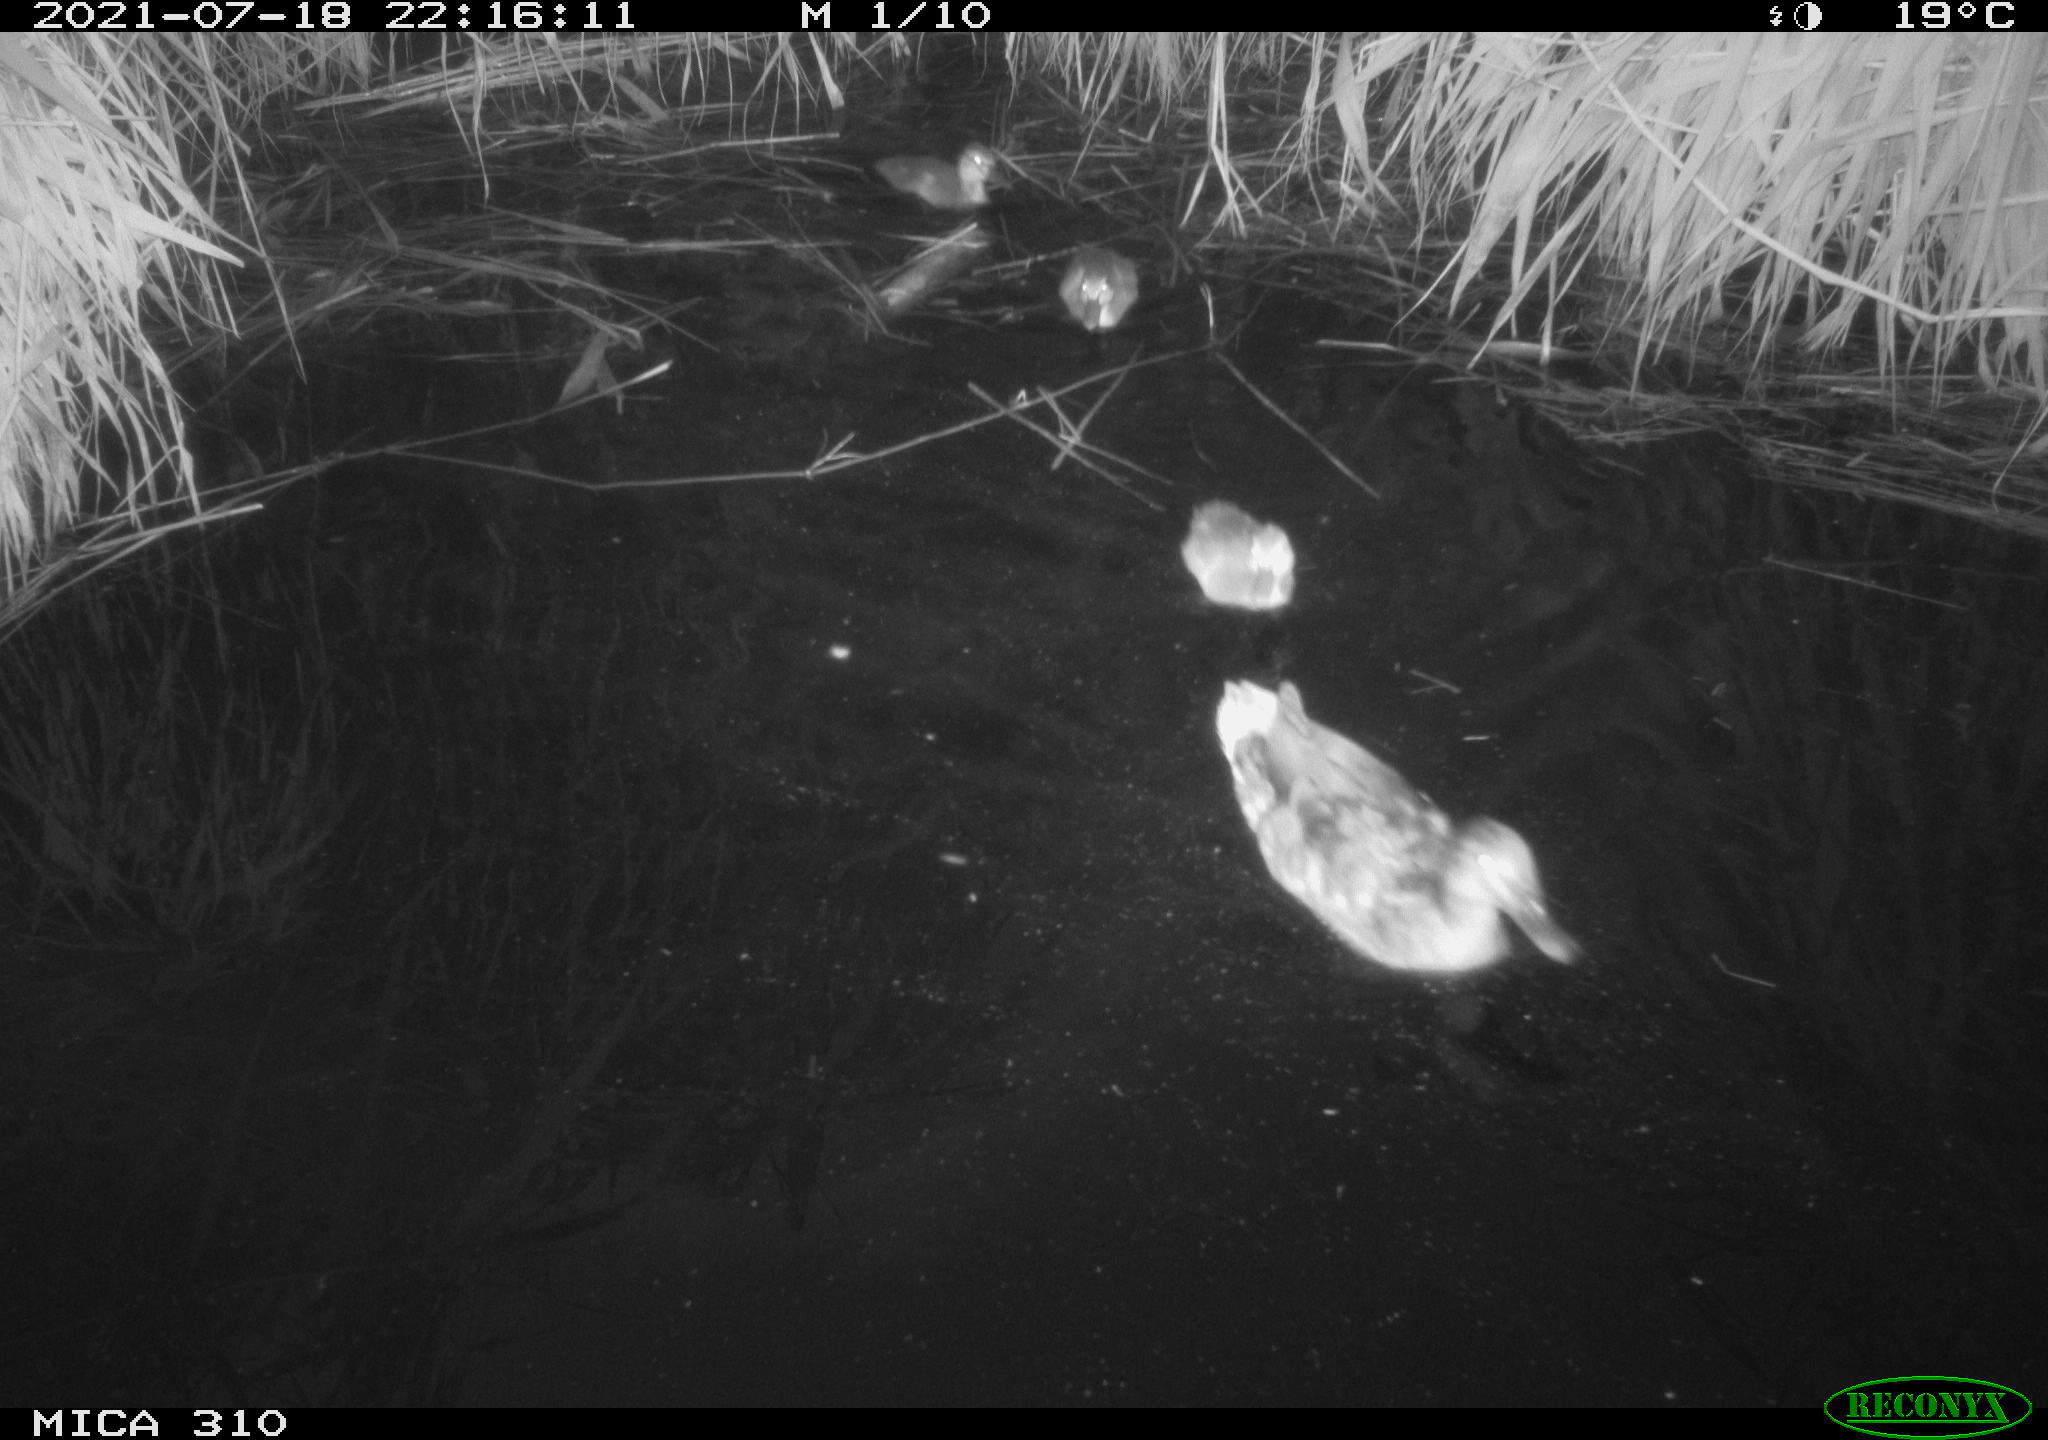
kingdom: Animalia
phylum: Chordata
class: Aves
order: Gruiformes
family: Rallidae
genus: Gallinula
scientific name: Gallinula chloropus
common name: Common moorhen
